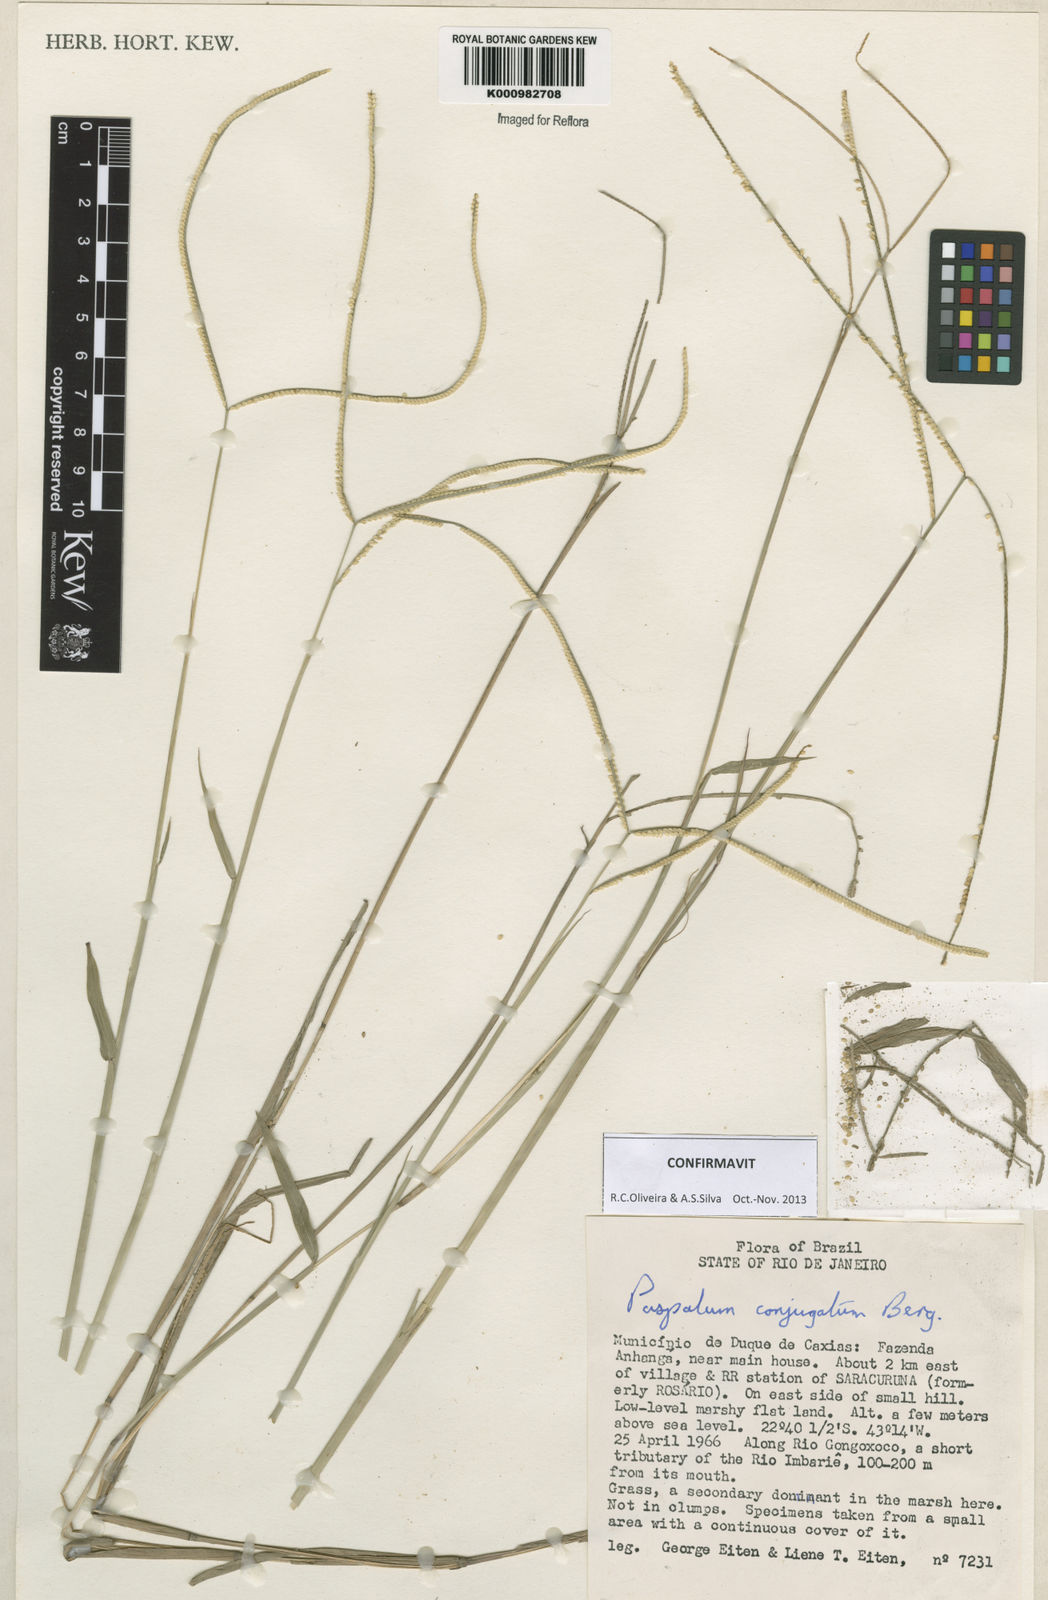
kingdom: Plantae
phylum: Tracheophyta
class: Liliopsida
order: Poales
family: Poaceae
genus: Paspalum
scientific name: Paspalum conjugatum
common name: Hilograss
